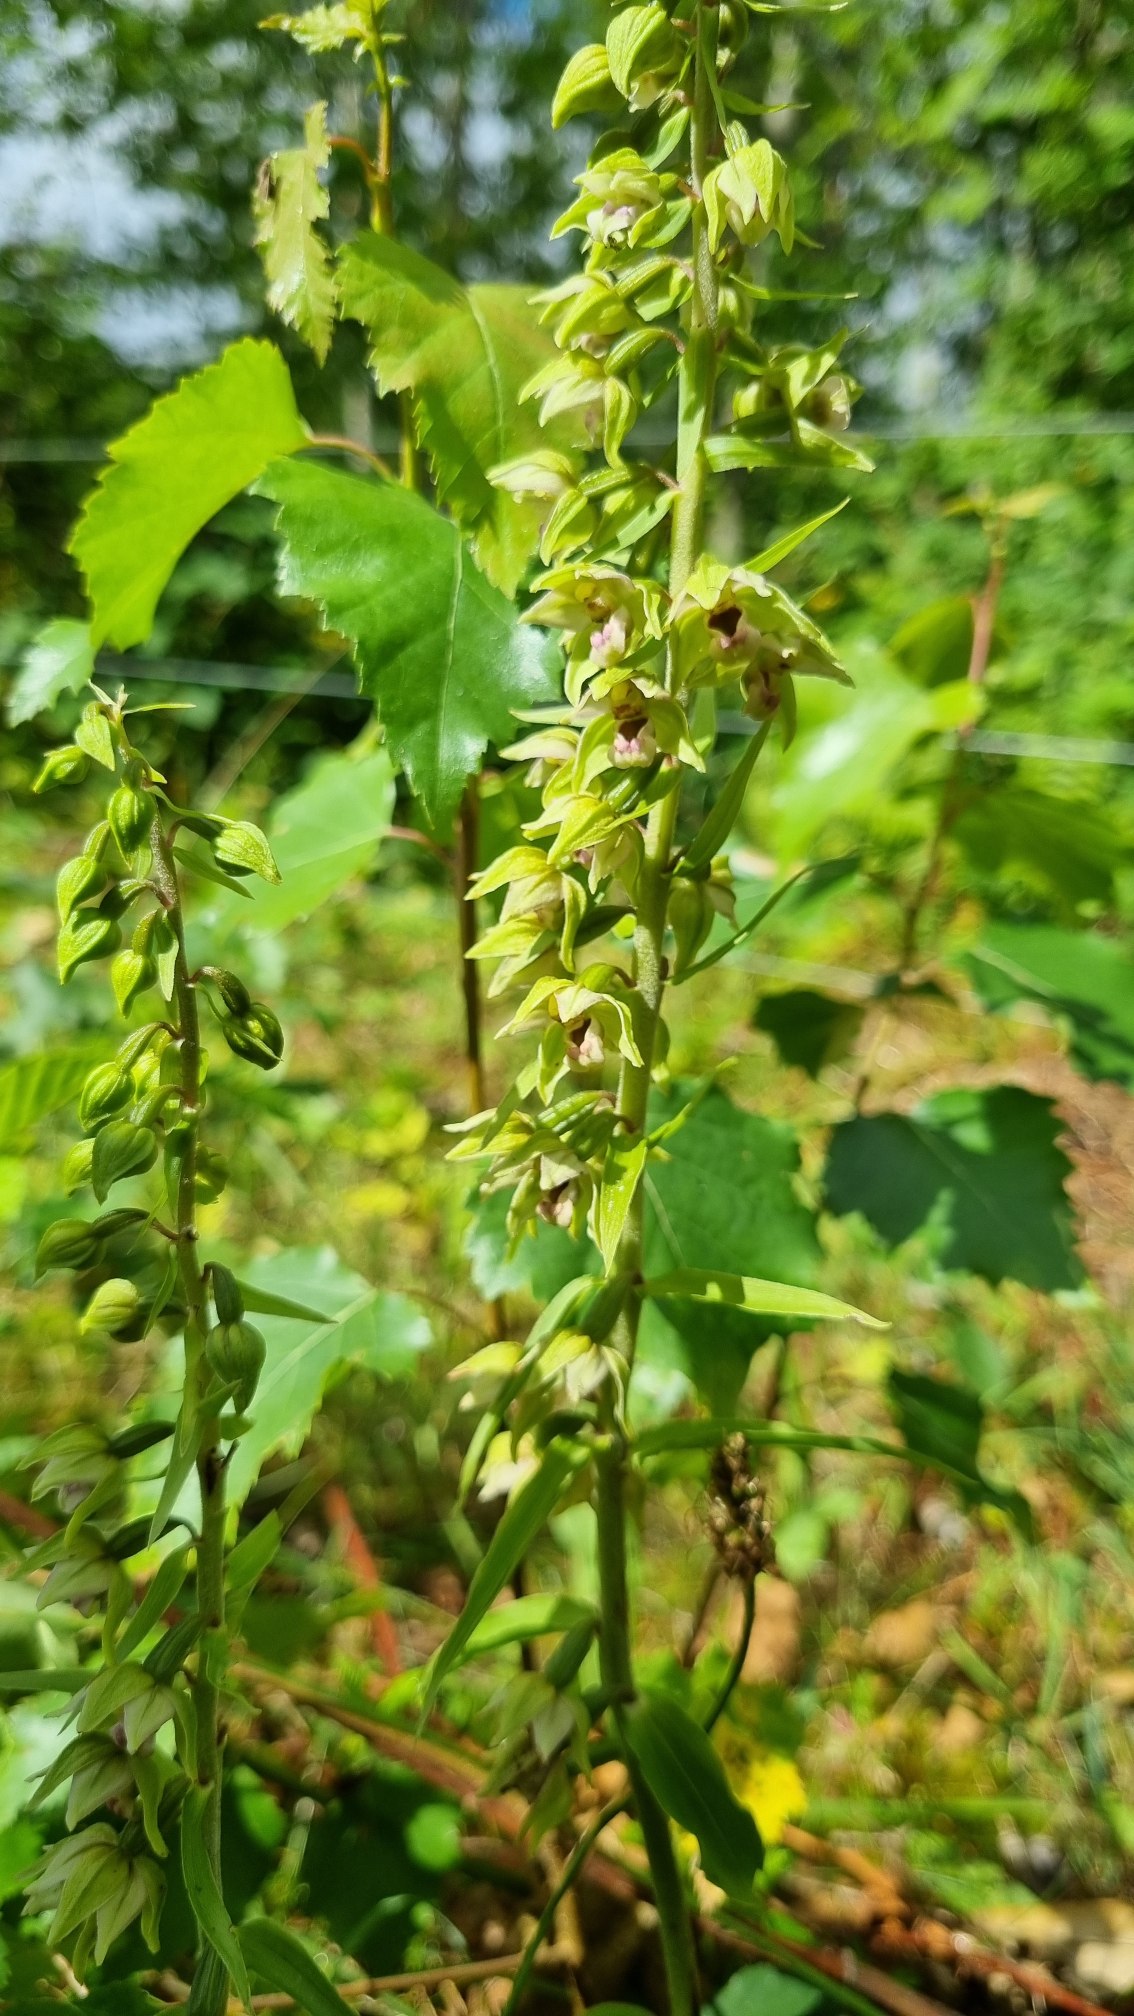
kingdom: Plantae
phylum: Tracheophyta
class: Liliopsida
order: Asparagales
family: Orchidaceae
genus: Epipactis
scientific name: Epipactis helleborine
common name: Skov-hullæbe
